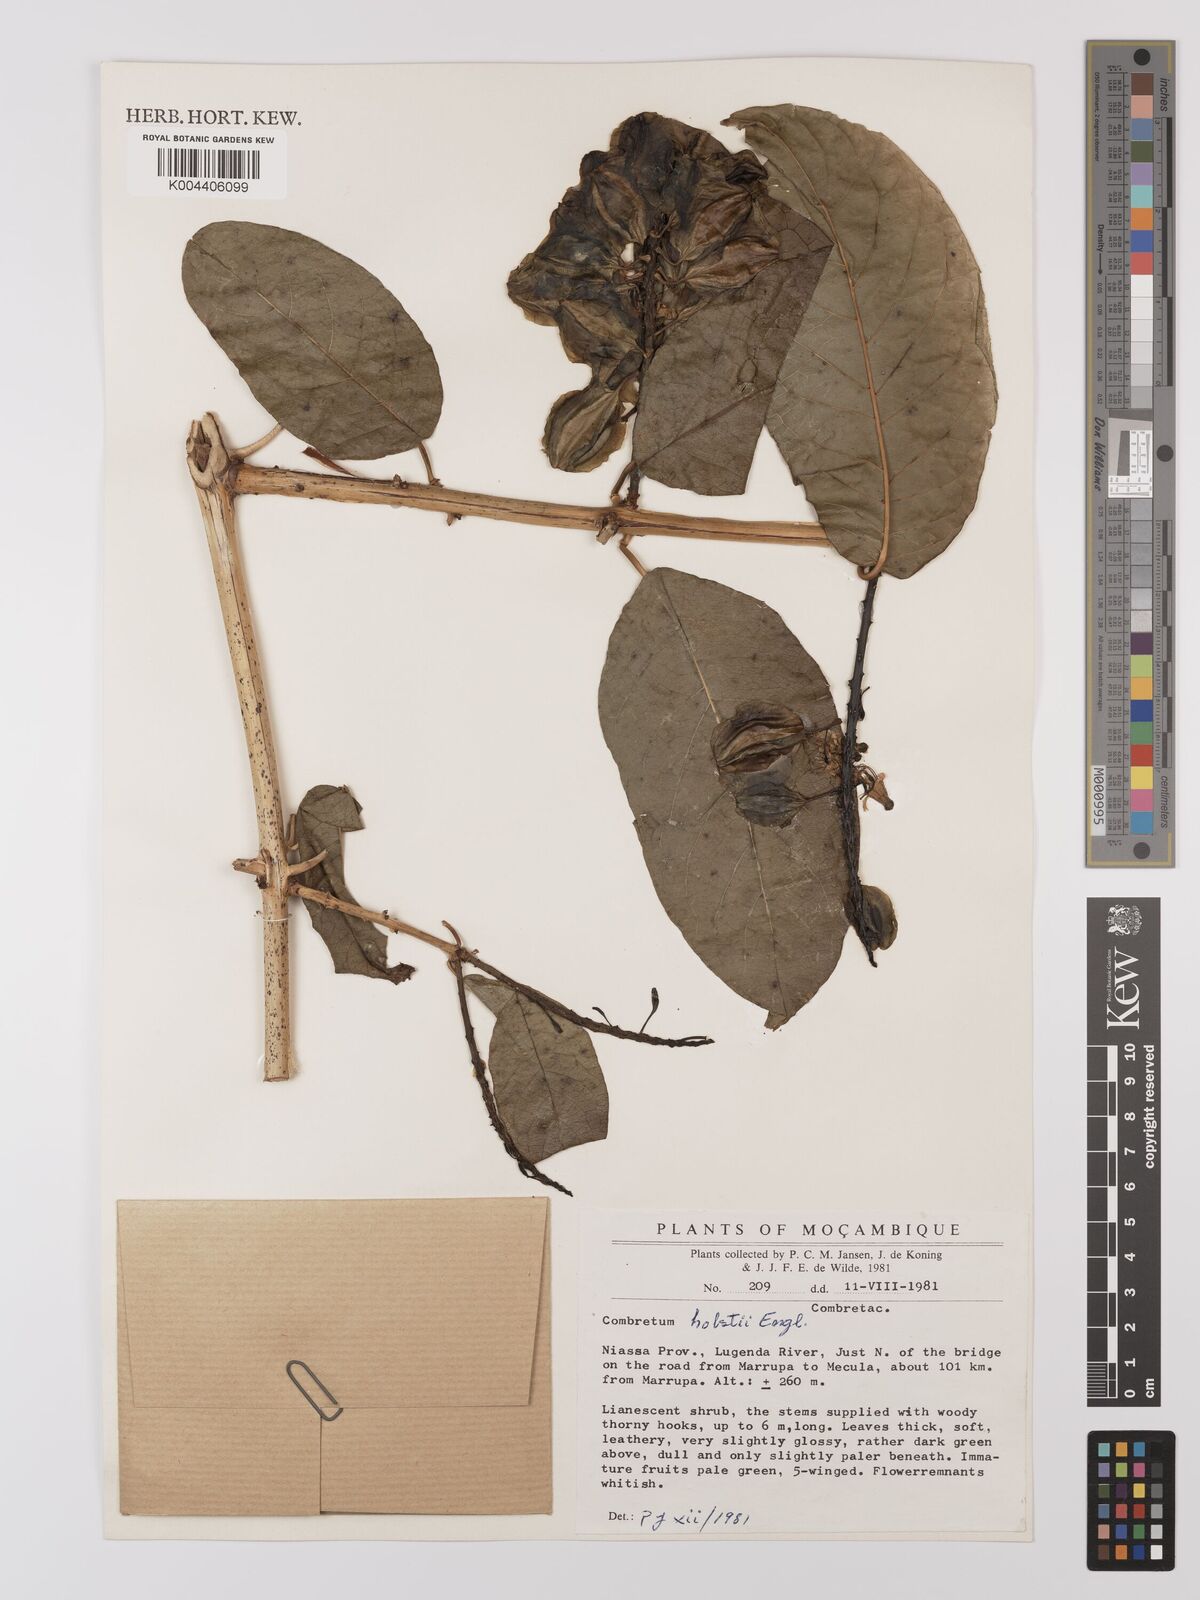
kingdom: Plantae
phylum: Tracheophyta
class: Magnoliopsida
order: Myrtales
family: Combretaceae
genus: Combretum
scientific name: Combretum holstii
